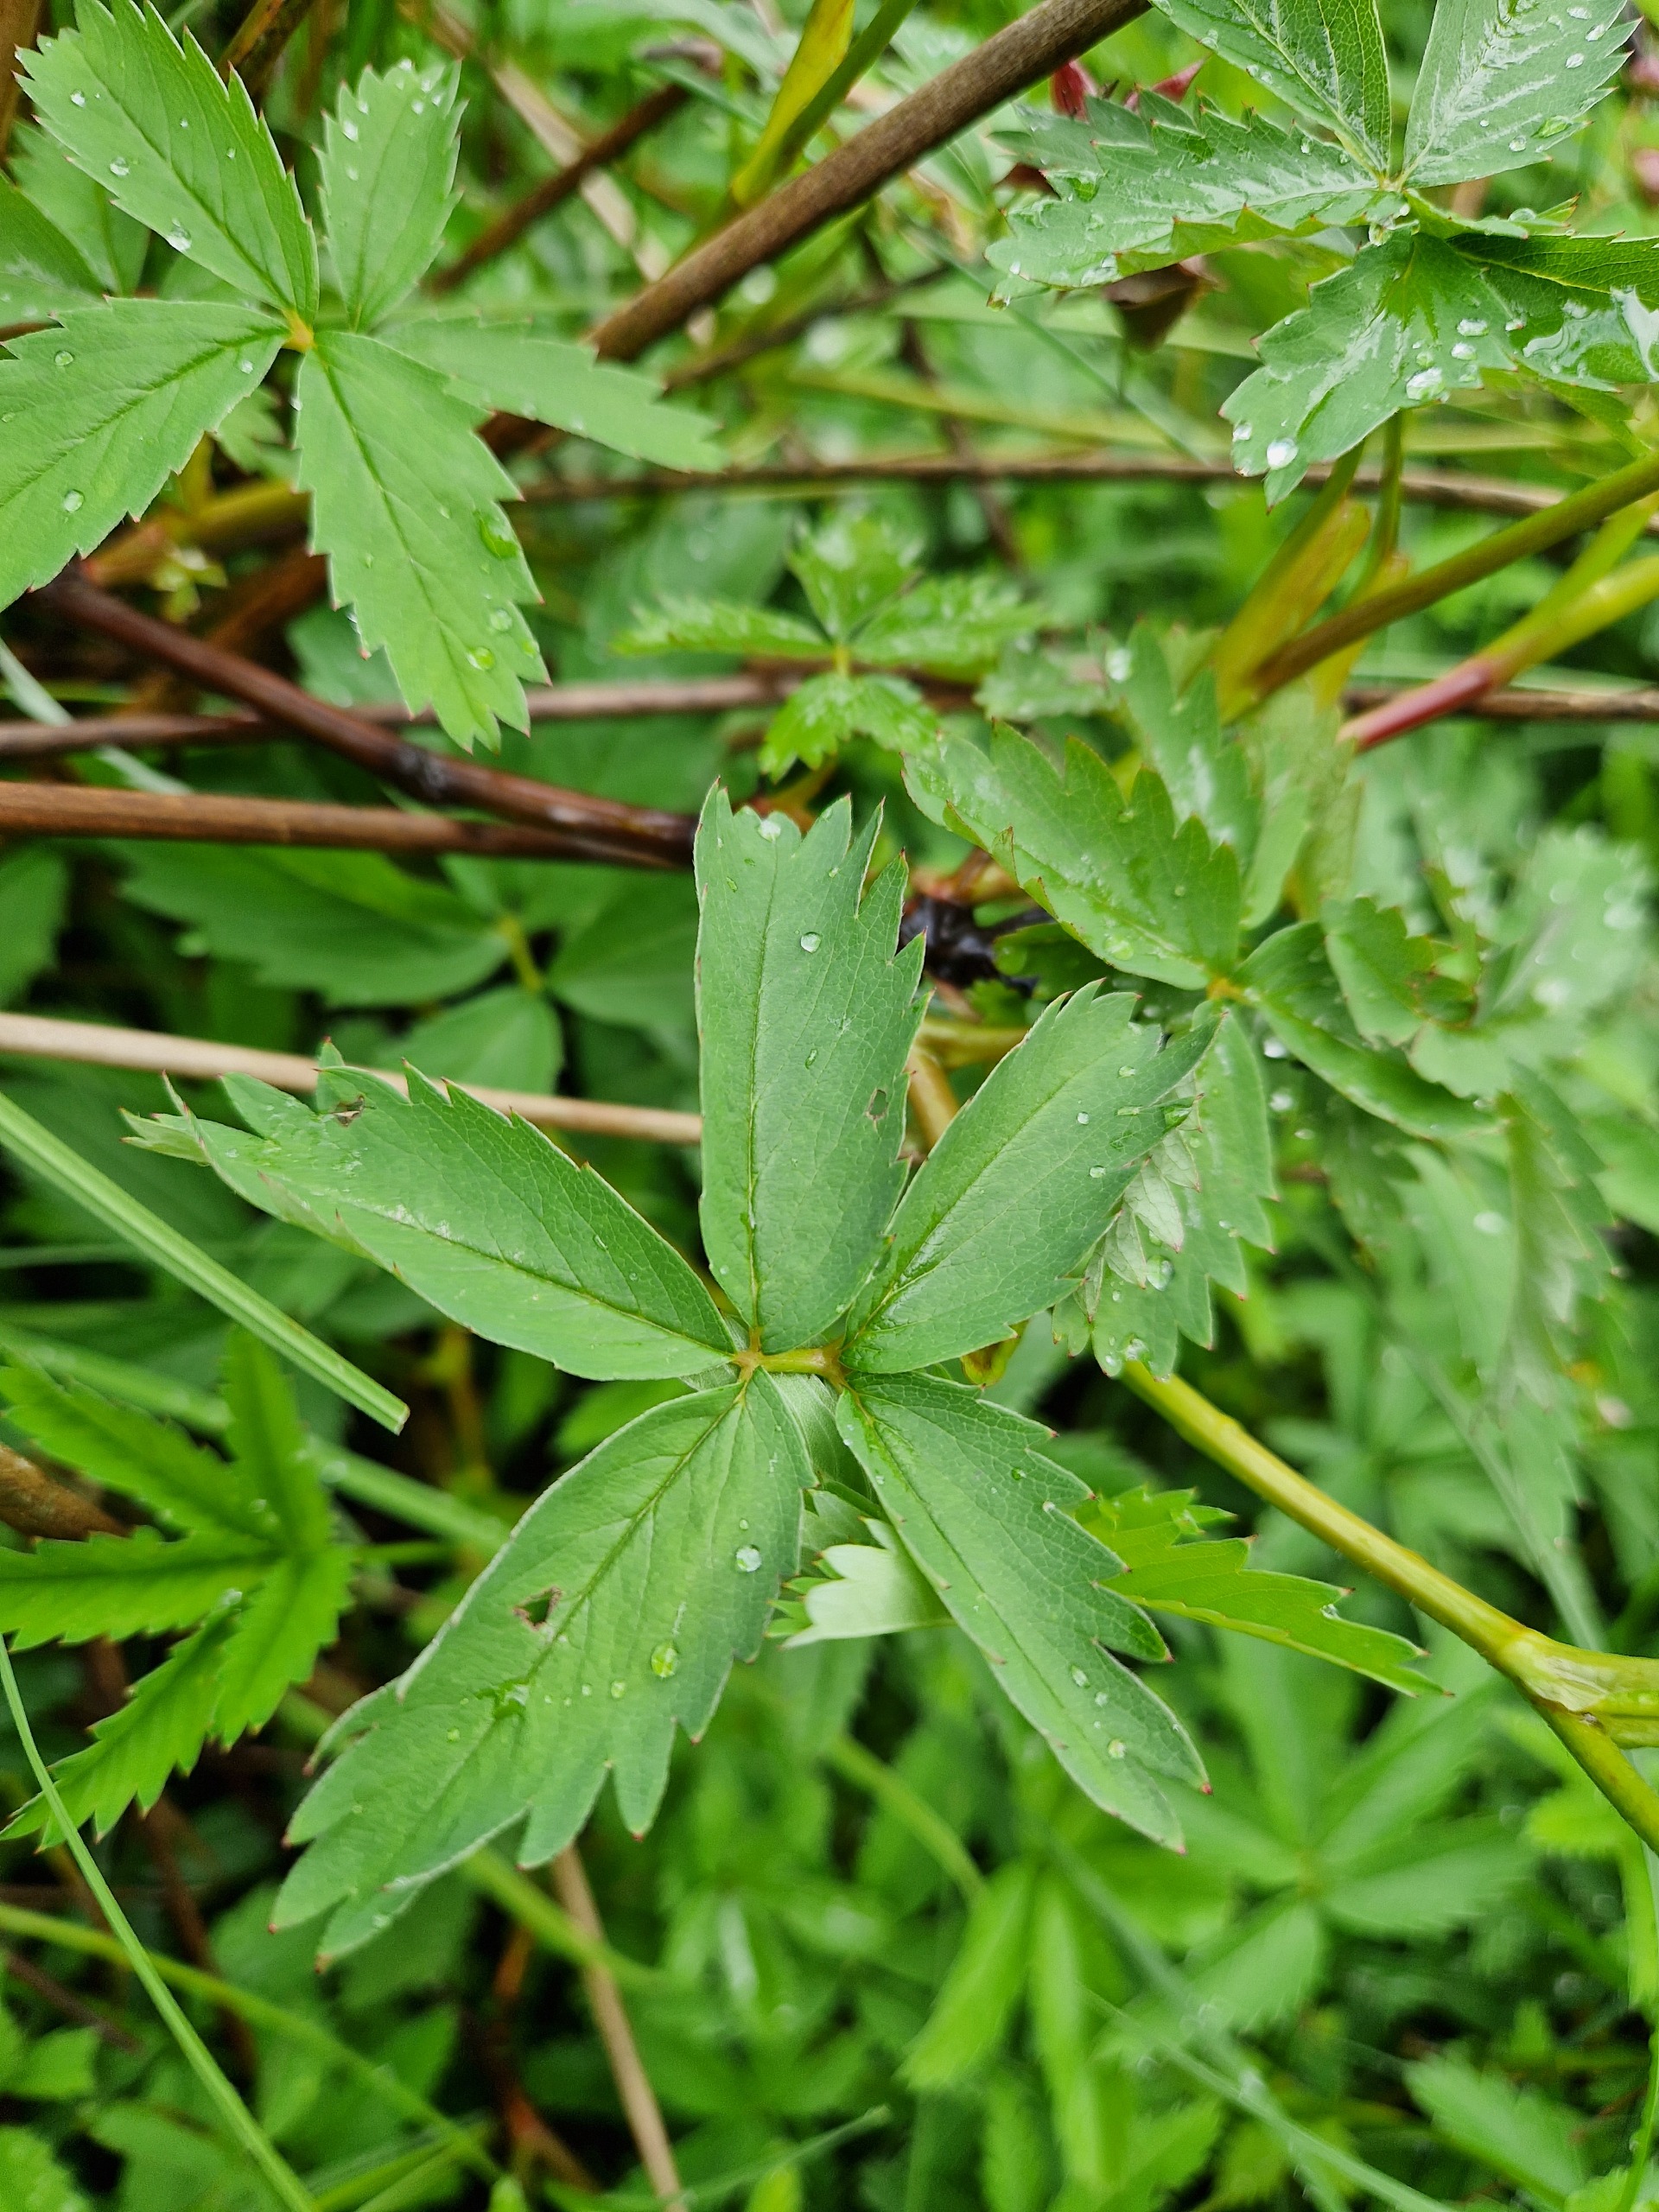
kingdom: Plantae
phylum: Tracheophyta
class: Magnoliopsida
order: Rosales
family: Rosaceae
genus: Comarum
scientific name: Comarum palustre
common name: Kragefod
